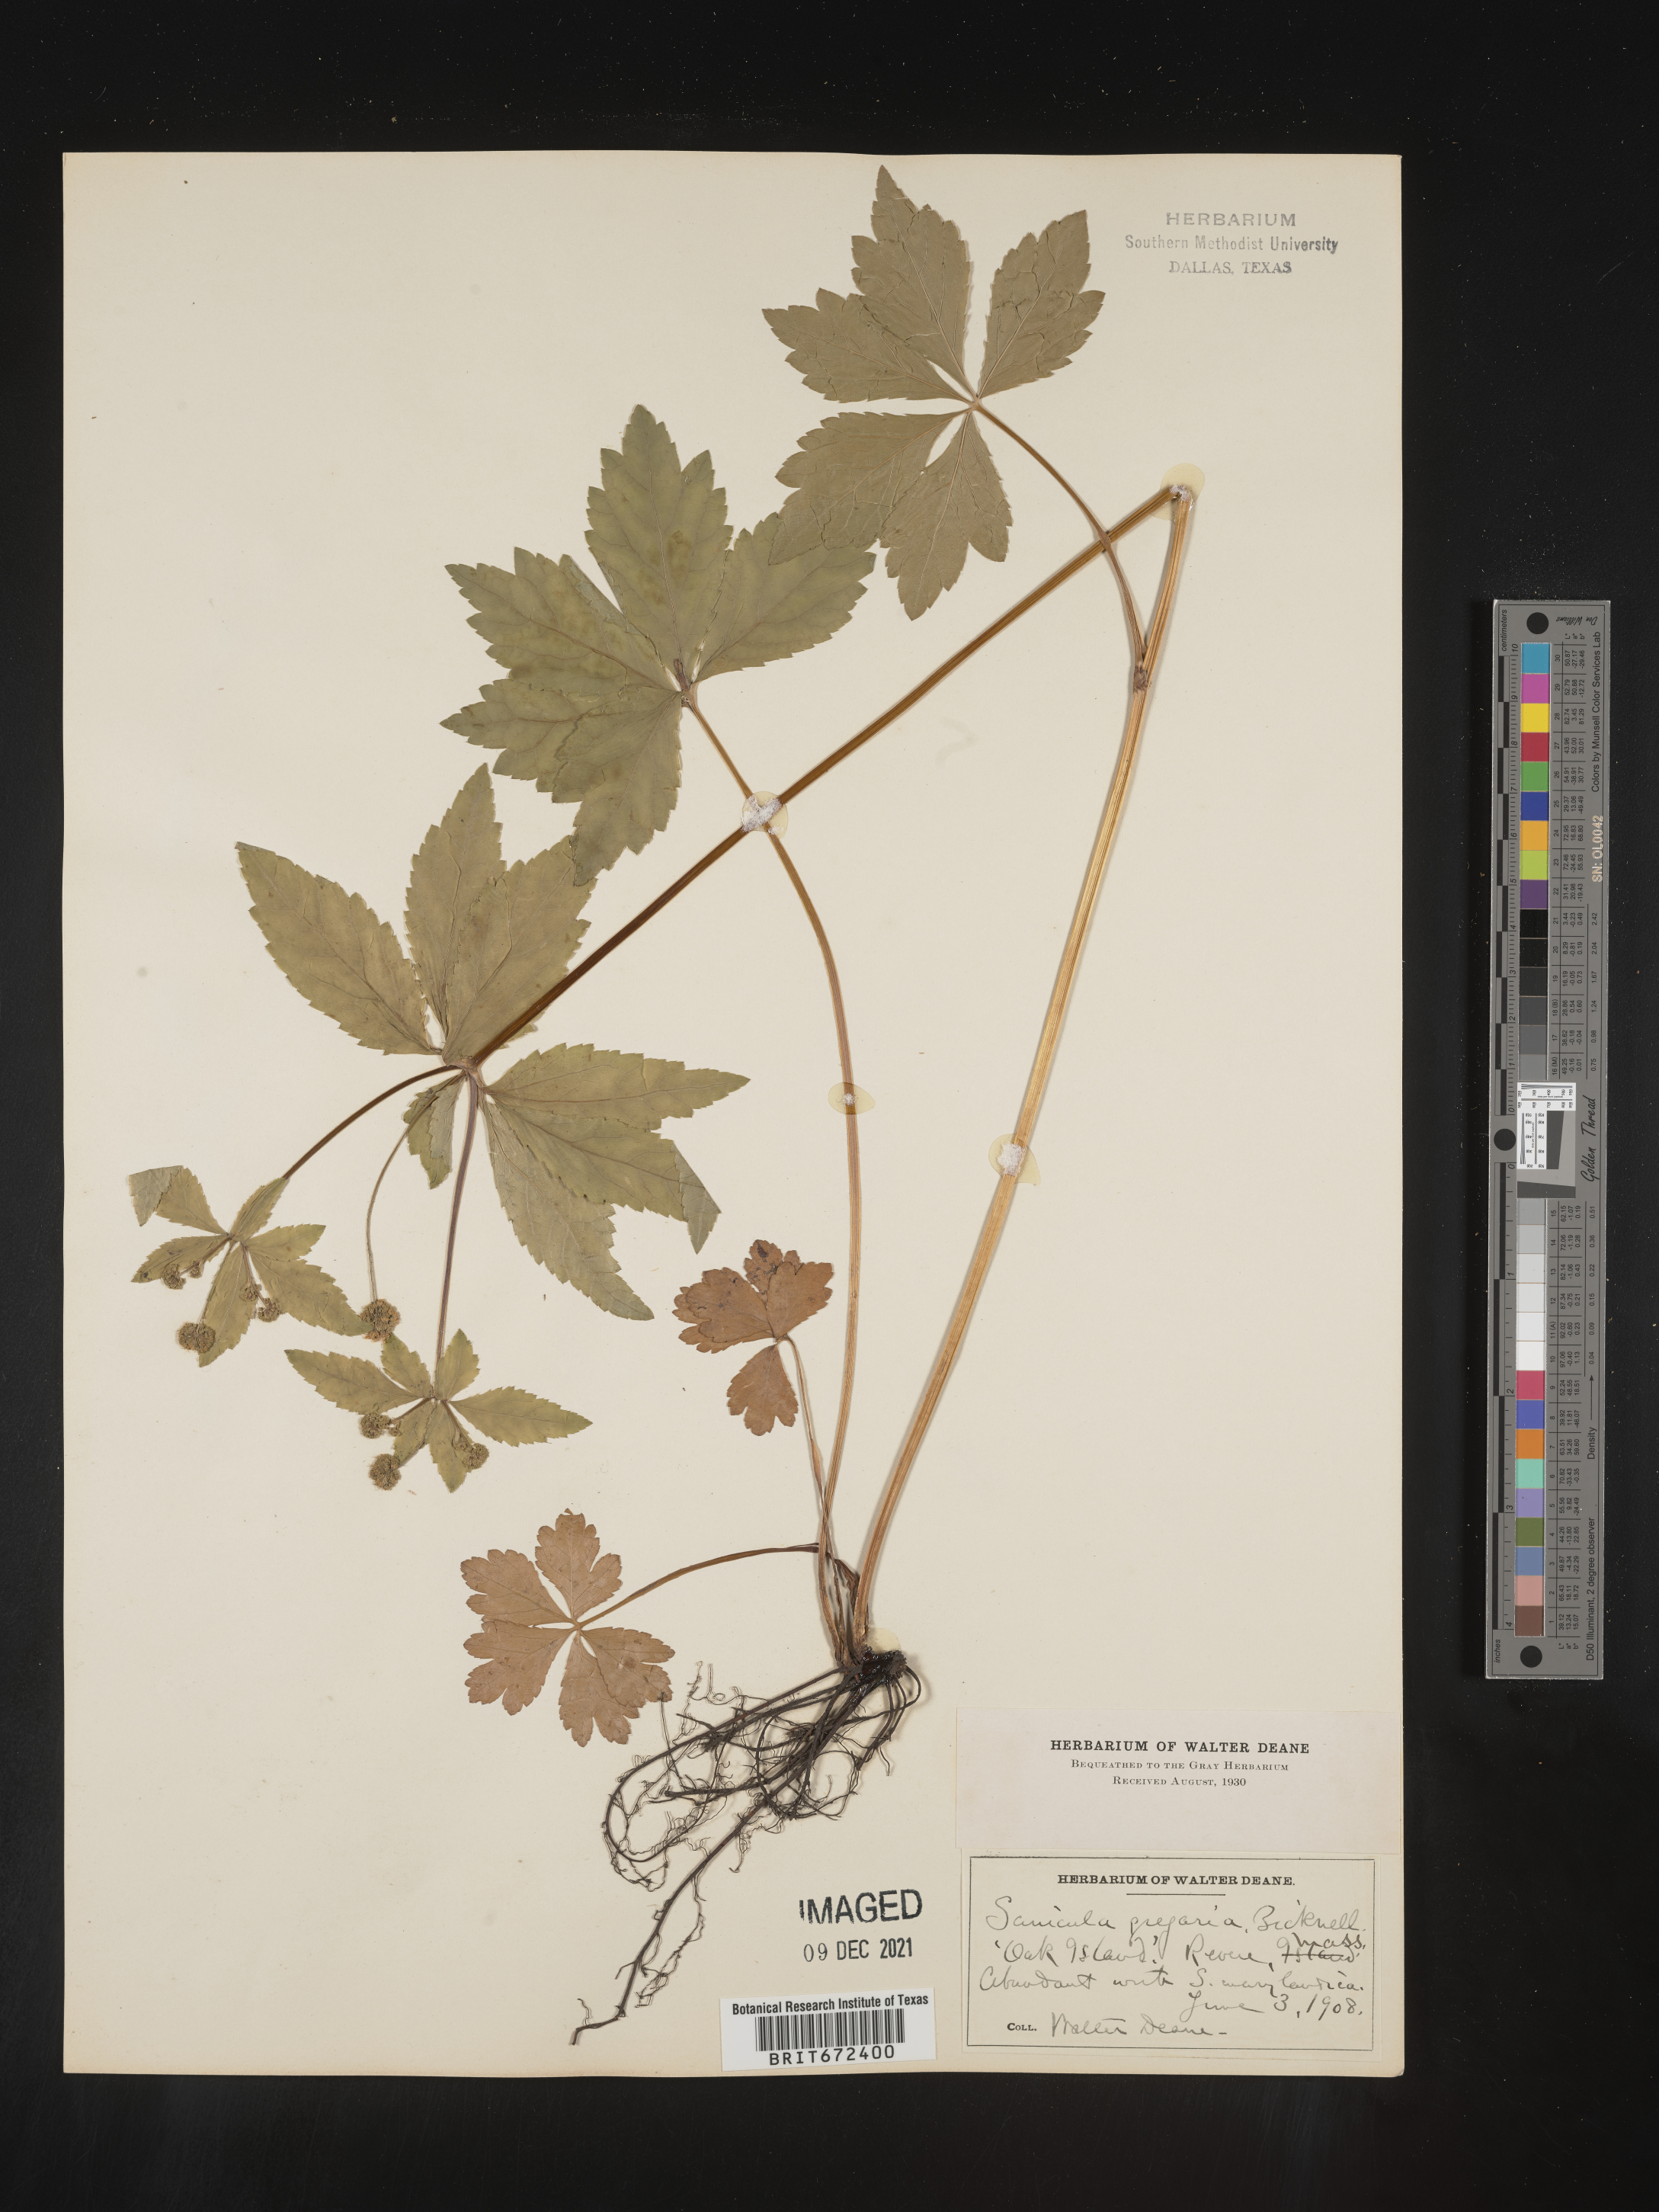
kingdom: Plantae
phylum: Tracheophyta
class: Magnoliopsida
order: Apiales
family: Apiaceae
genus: Sanicula
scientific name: Sanicula odorata
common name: Cluster sanicle
